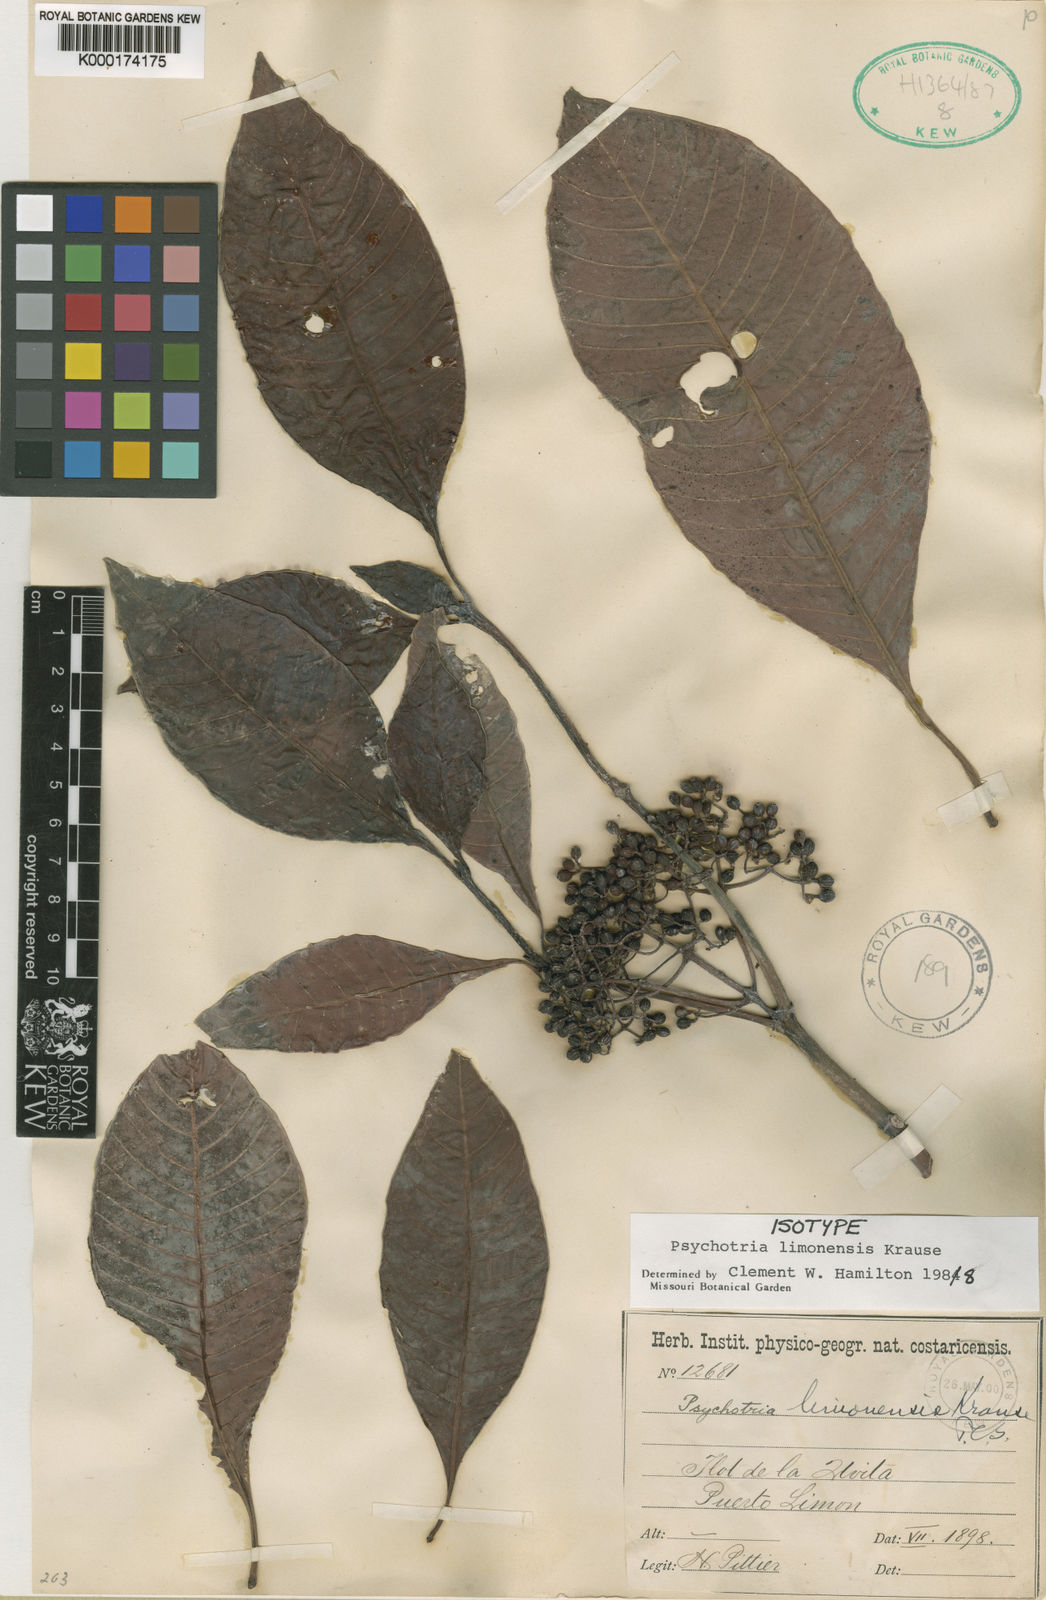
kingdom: Plantae
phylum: Tracheophyta
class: Magnoliopsida
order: Gentianales
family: Rubiaceae
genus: Psychotria
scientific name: Psychotria limonensis
